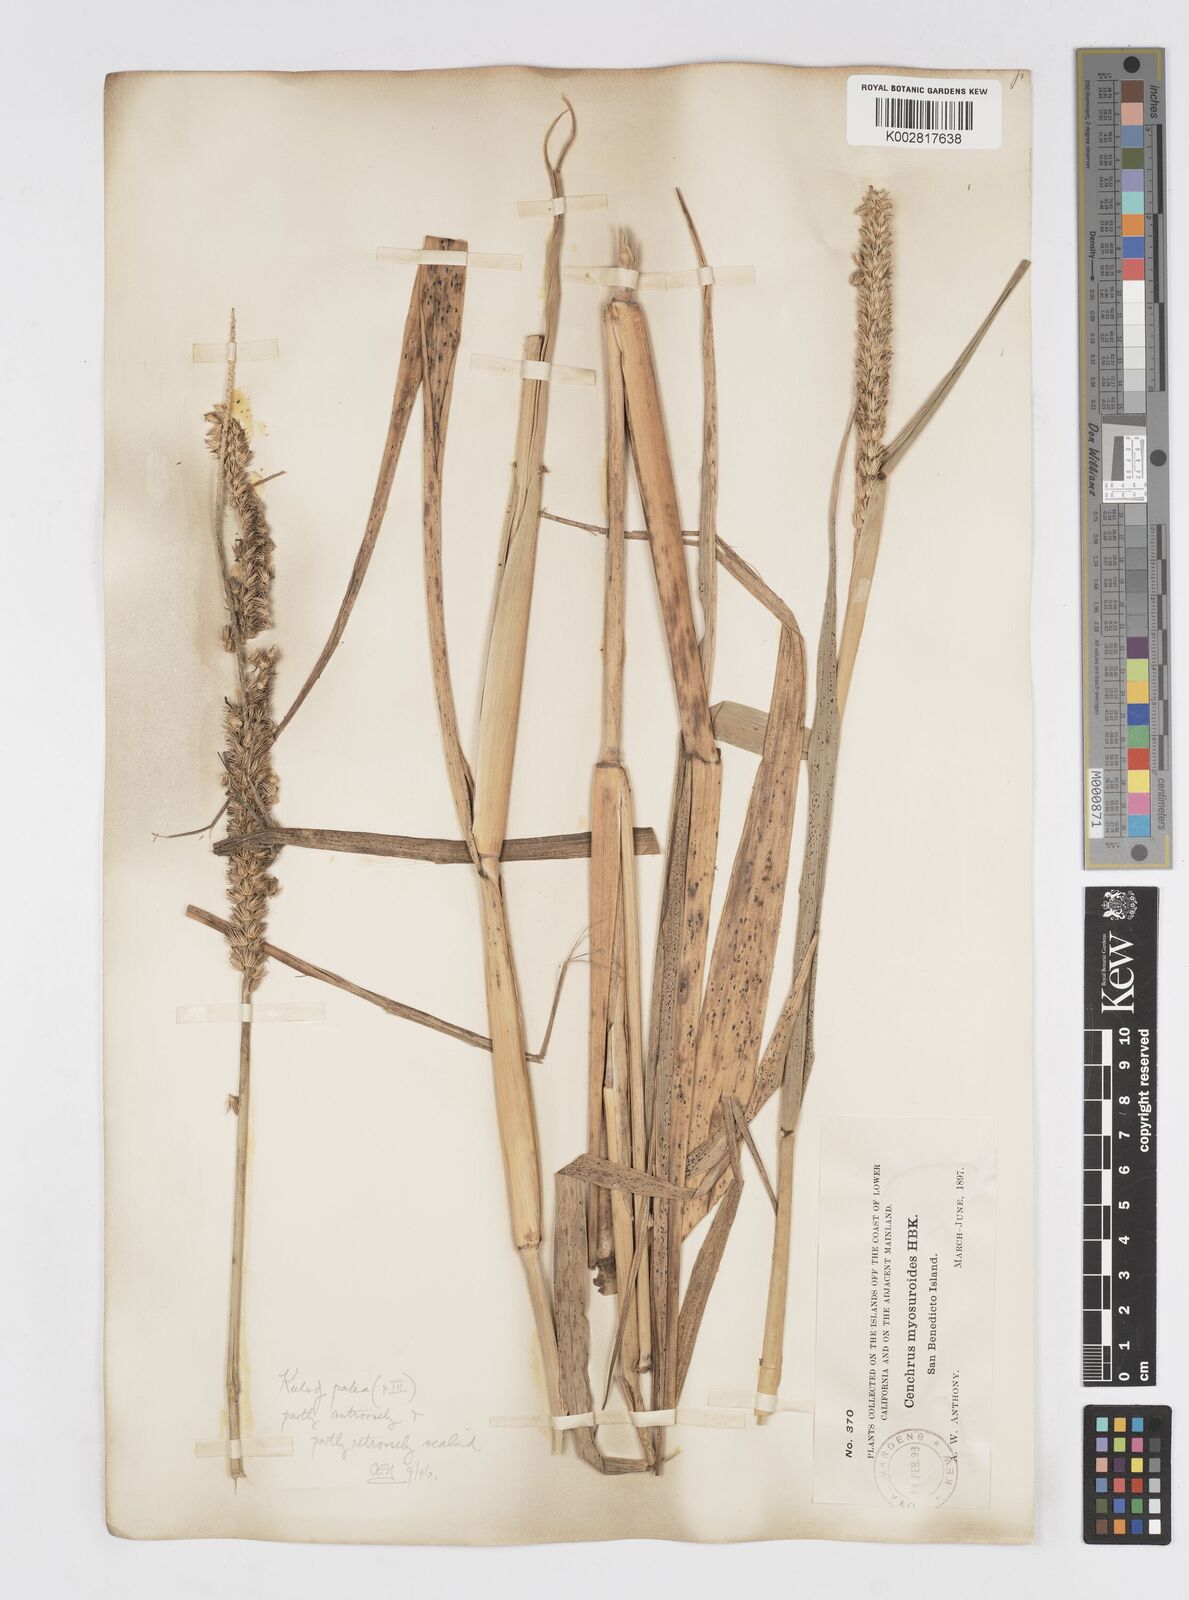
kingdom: Plantae
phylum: Tracheophyta
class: Liliopsida
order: Poales
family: Poaceae
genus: Cenchrus
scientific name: Cenchrus myosuroides
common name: Big sandbur
